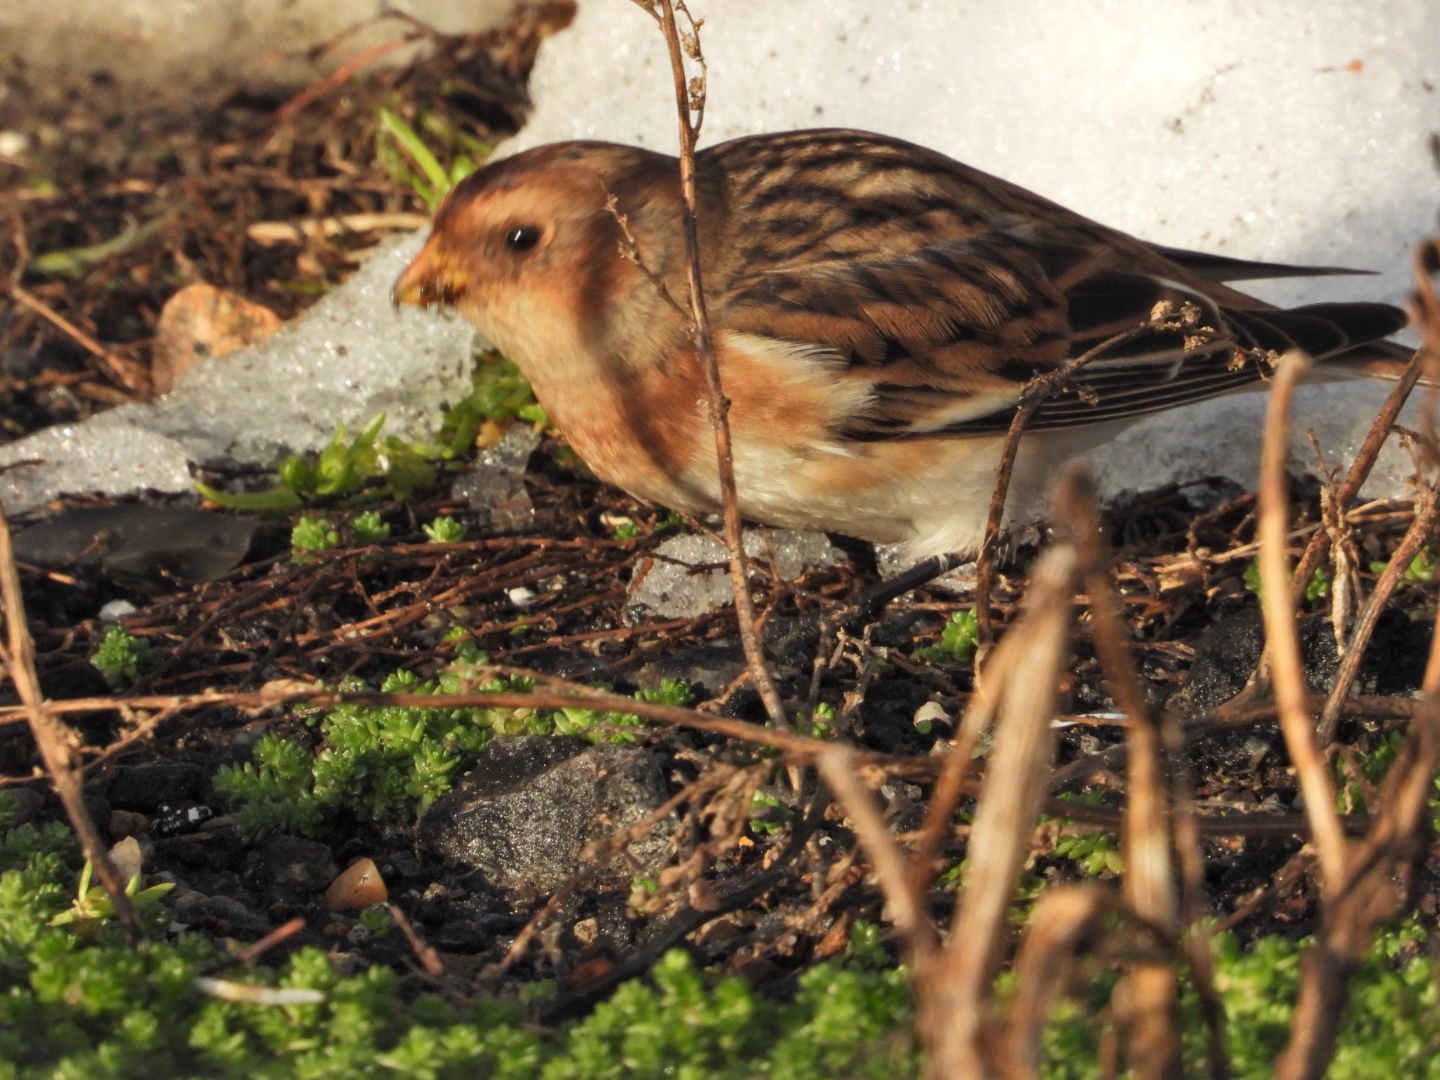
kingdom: Animalia
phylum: Chordata
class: Aves
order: Passeriformes
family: Calcariidae
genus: Plectrophenax
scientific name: Plectrophenax nivalis
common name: Snespurv
